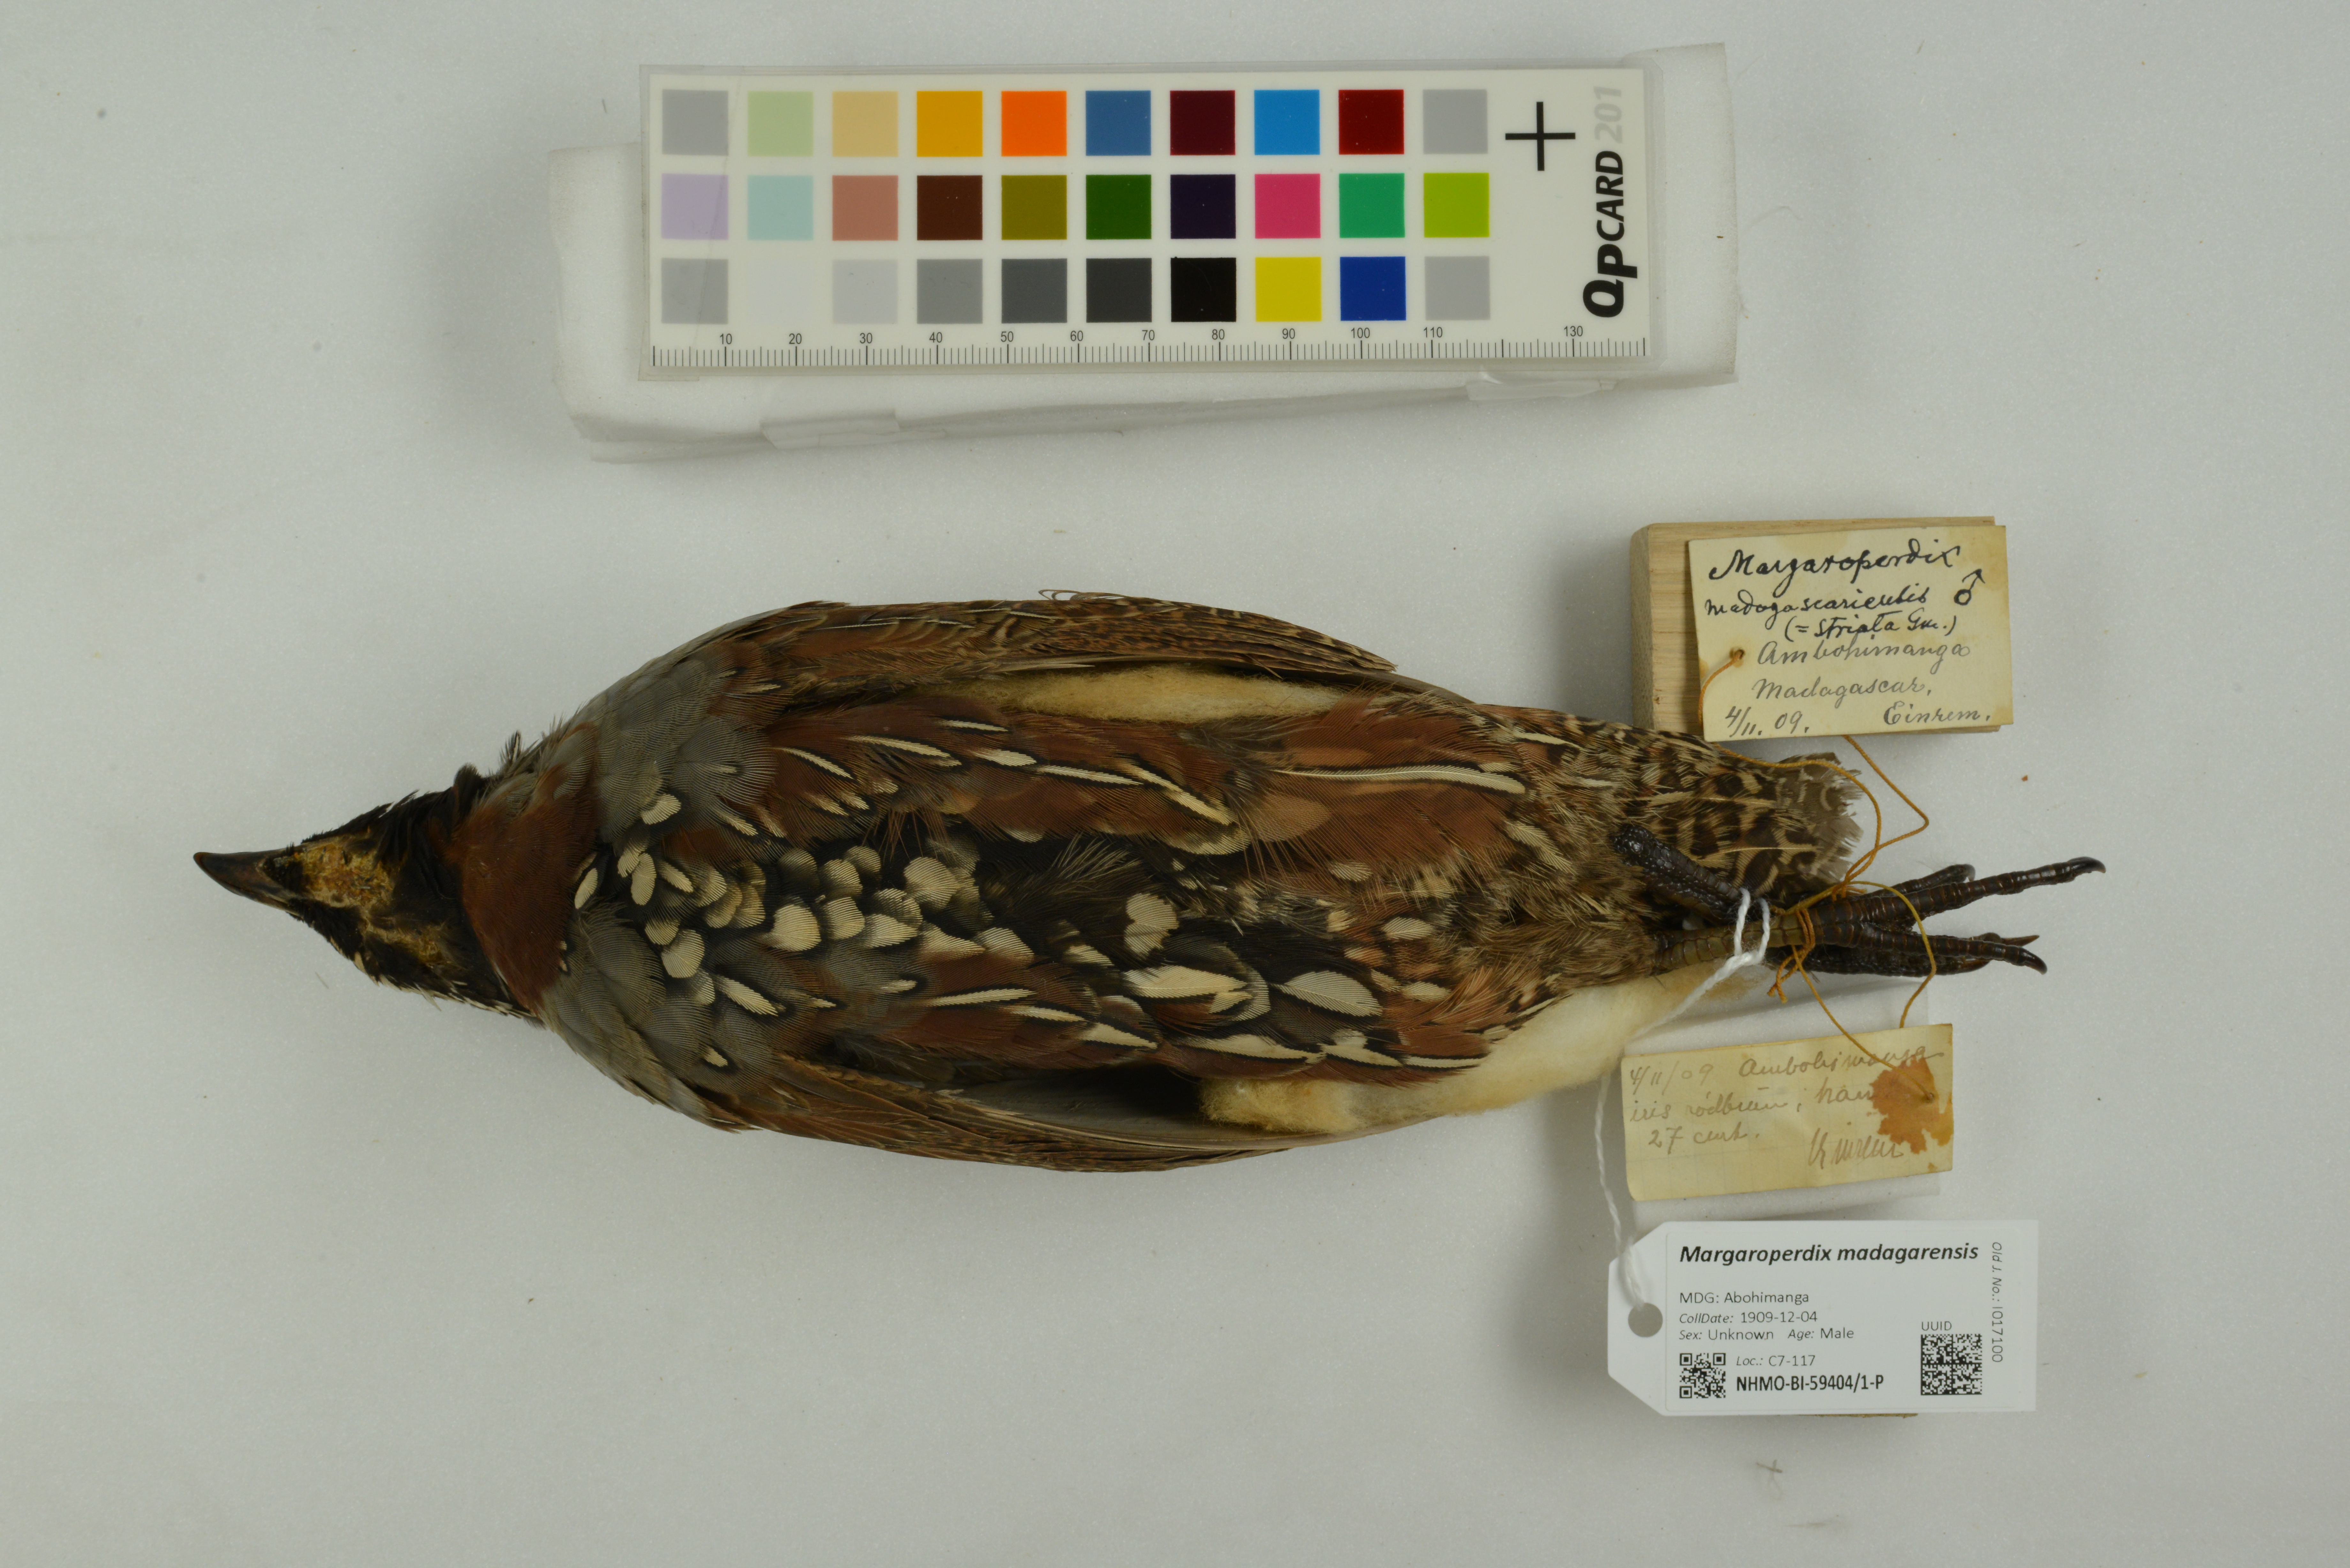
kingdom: Animalia
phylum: Chordata
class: Aves
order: Galliformes
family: Phasianidae
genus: Margaroperdix
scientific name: Margaroperdix madagarensis
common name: Madagascar partridge
